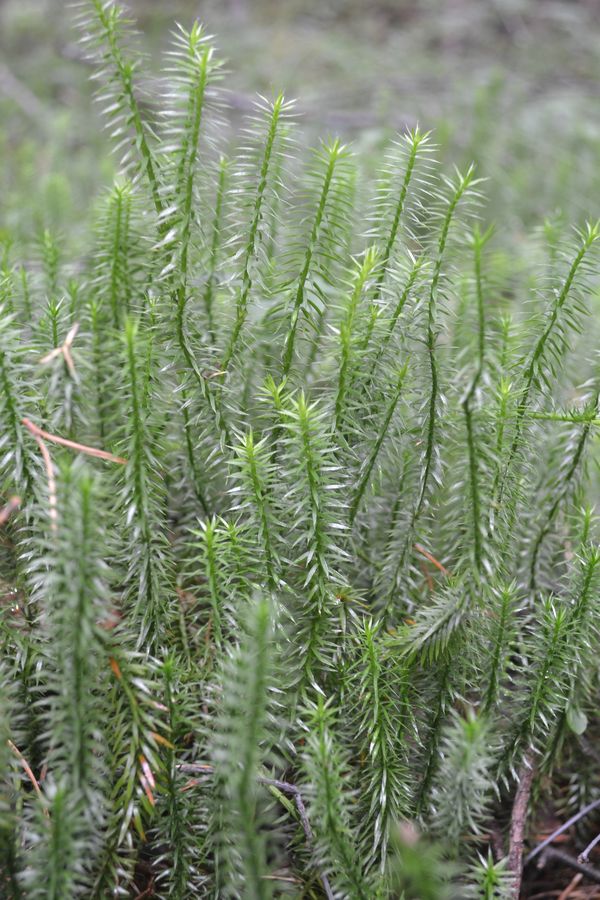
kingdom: Plantae
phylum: Tracheophyta
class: Lycopodiopsida
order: Lycopodiales
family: Lycopodiaceae
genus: Spinulum
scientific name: Spinulum annotinum
